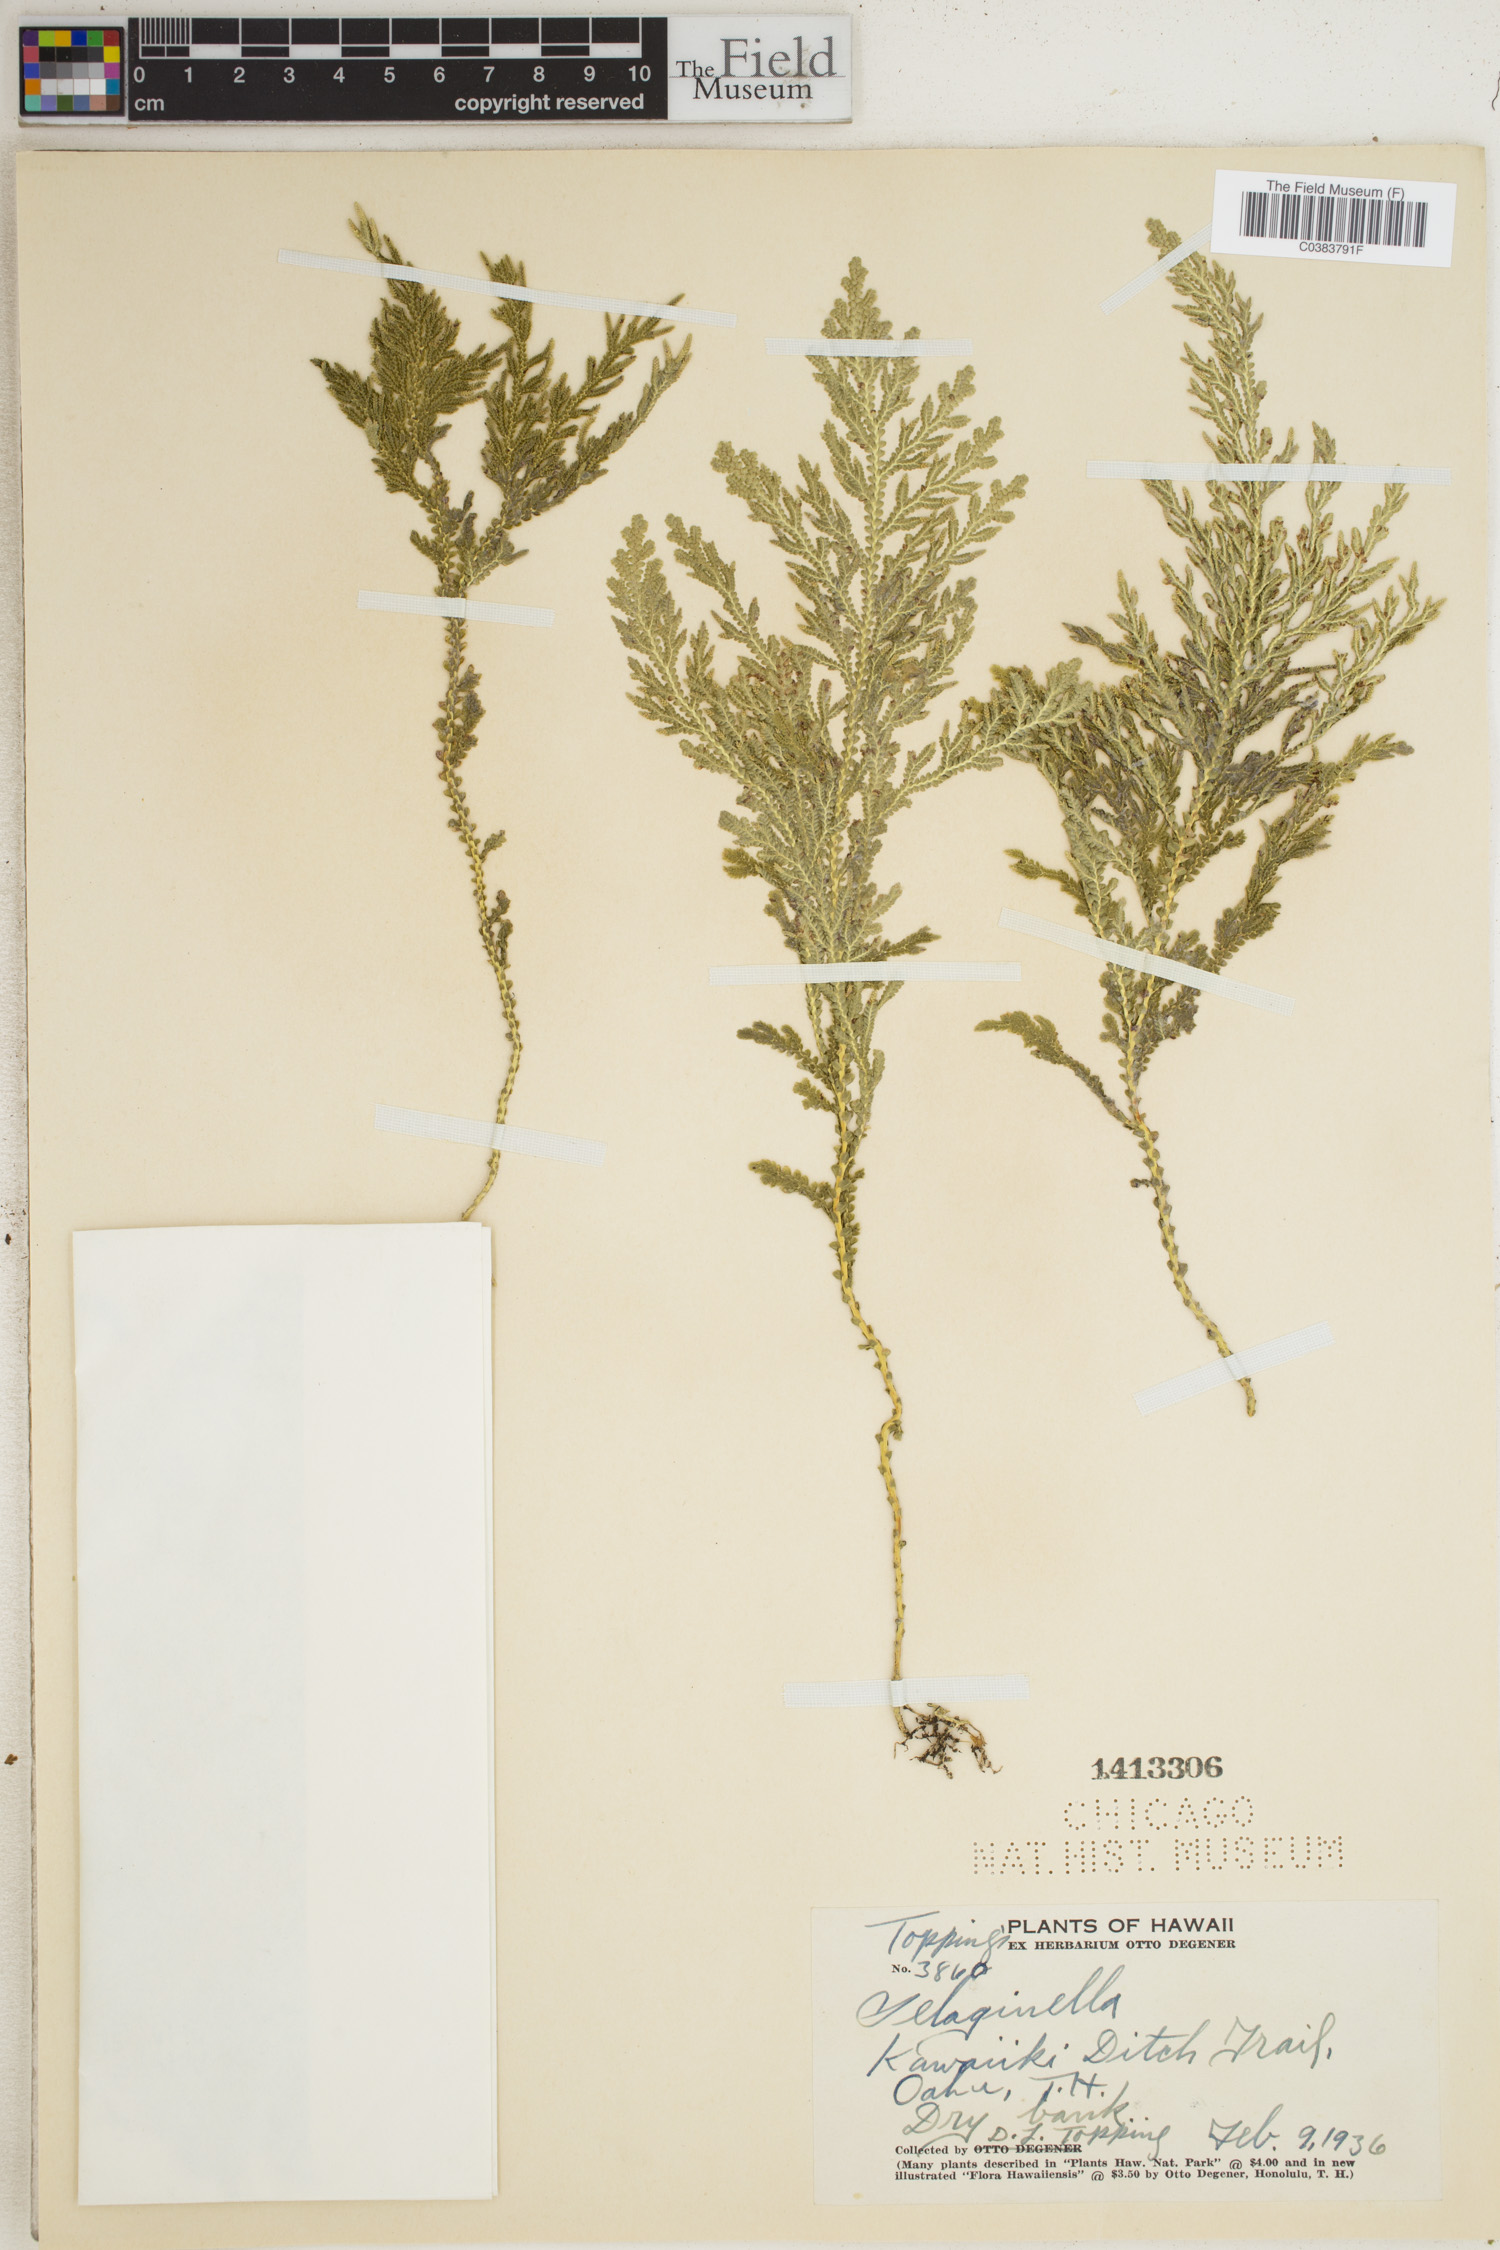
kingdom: Plantae
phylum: Tracheophyta
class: Lycopodiopsida
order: Selaginellales
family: Selaginellaceae
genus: Selaginella
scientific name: Selaginella
